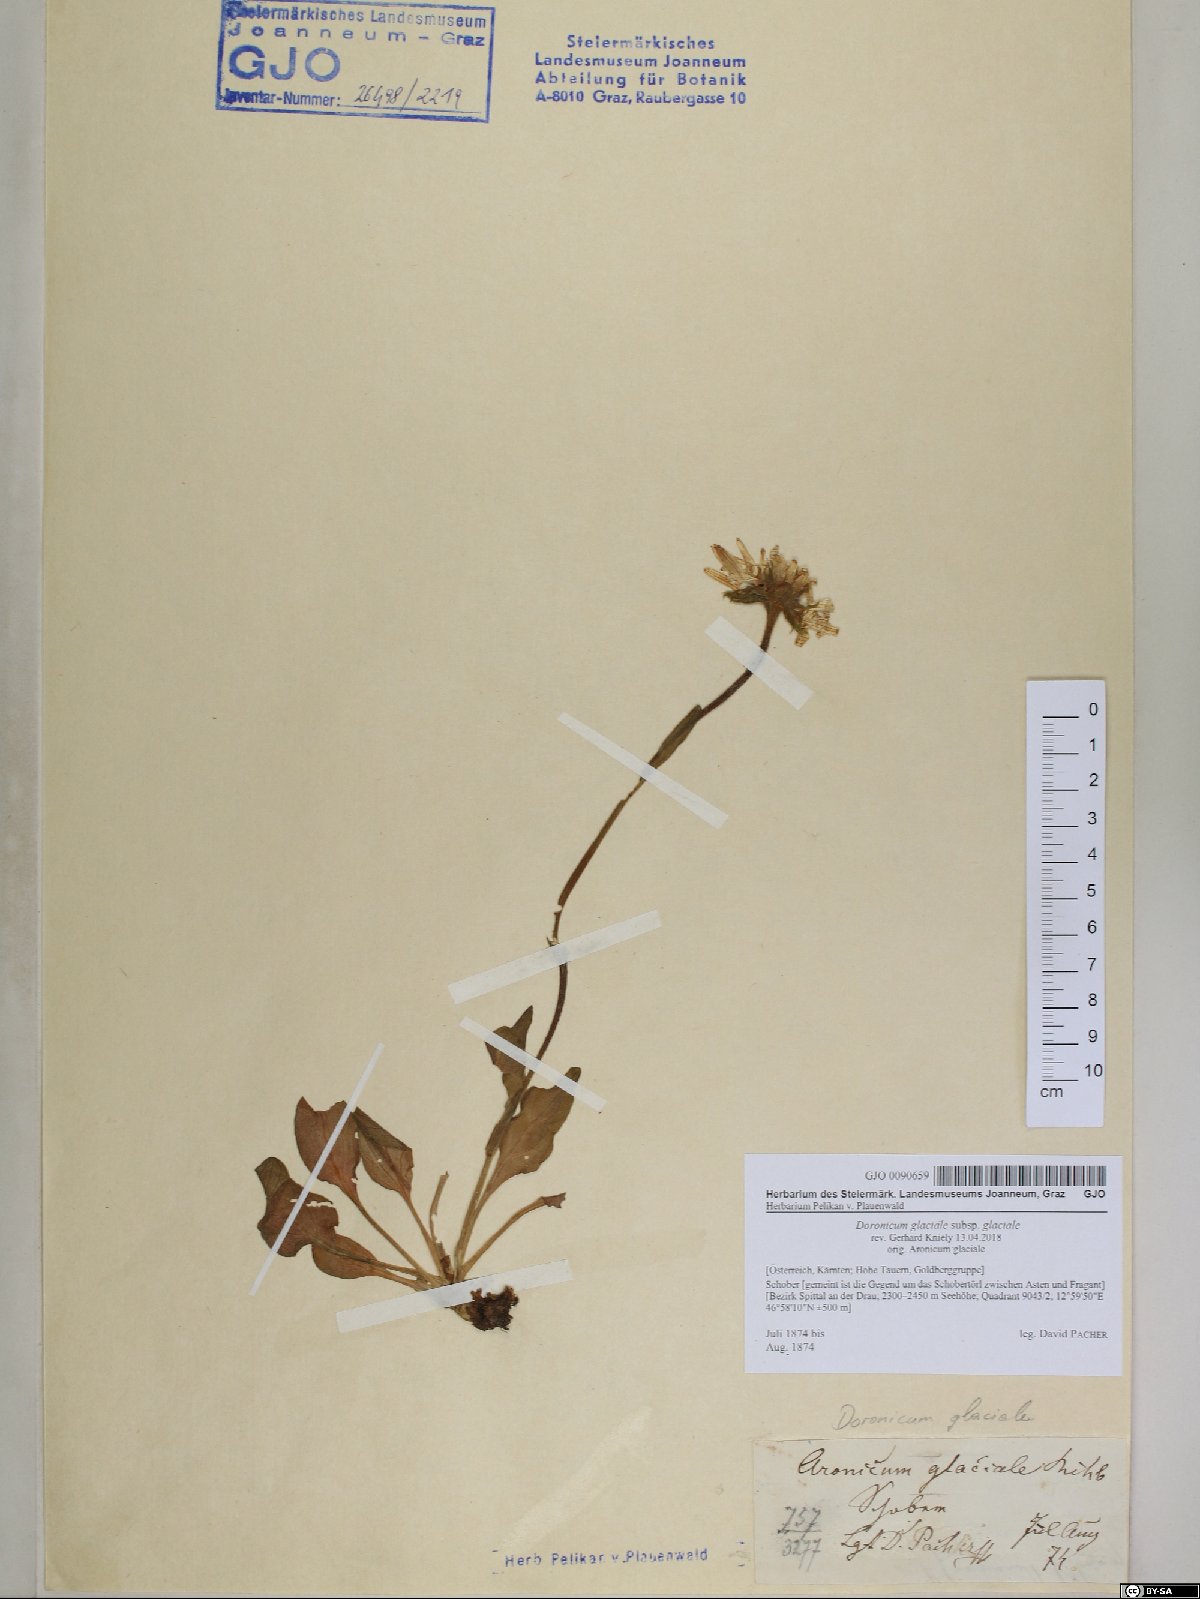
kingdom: Plantae
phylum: Tracheophyta
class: Magnoliopsida
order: Asterales
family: Asteraceae
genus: Doronicum
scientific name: Doronicum glaciale
